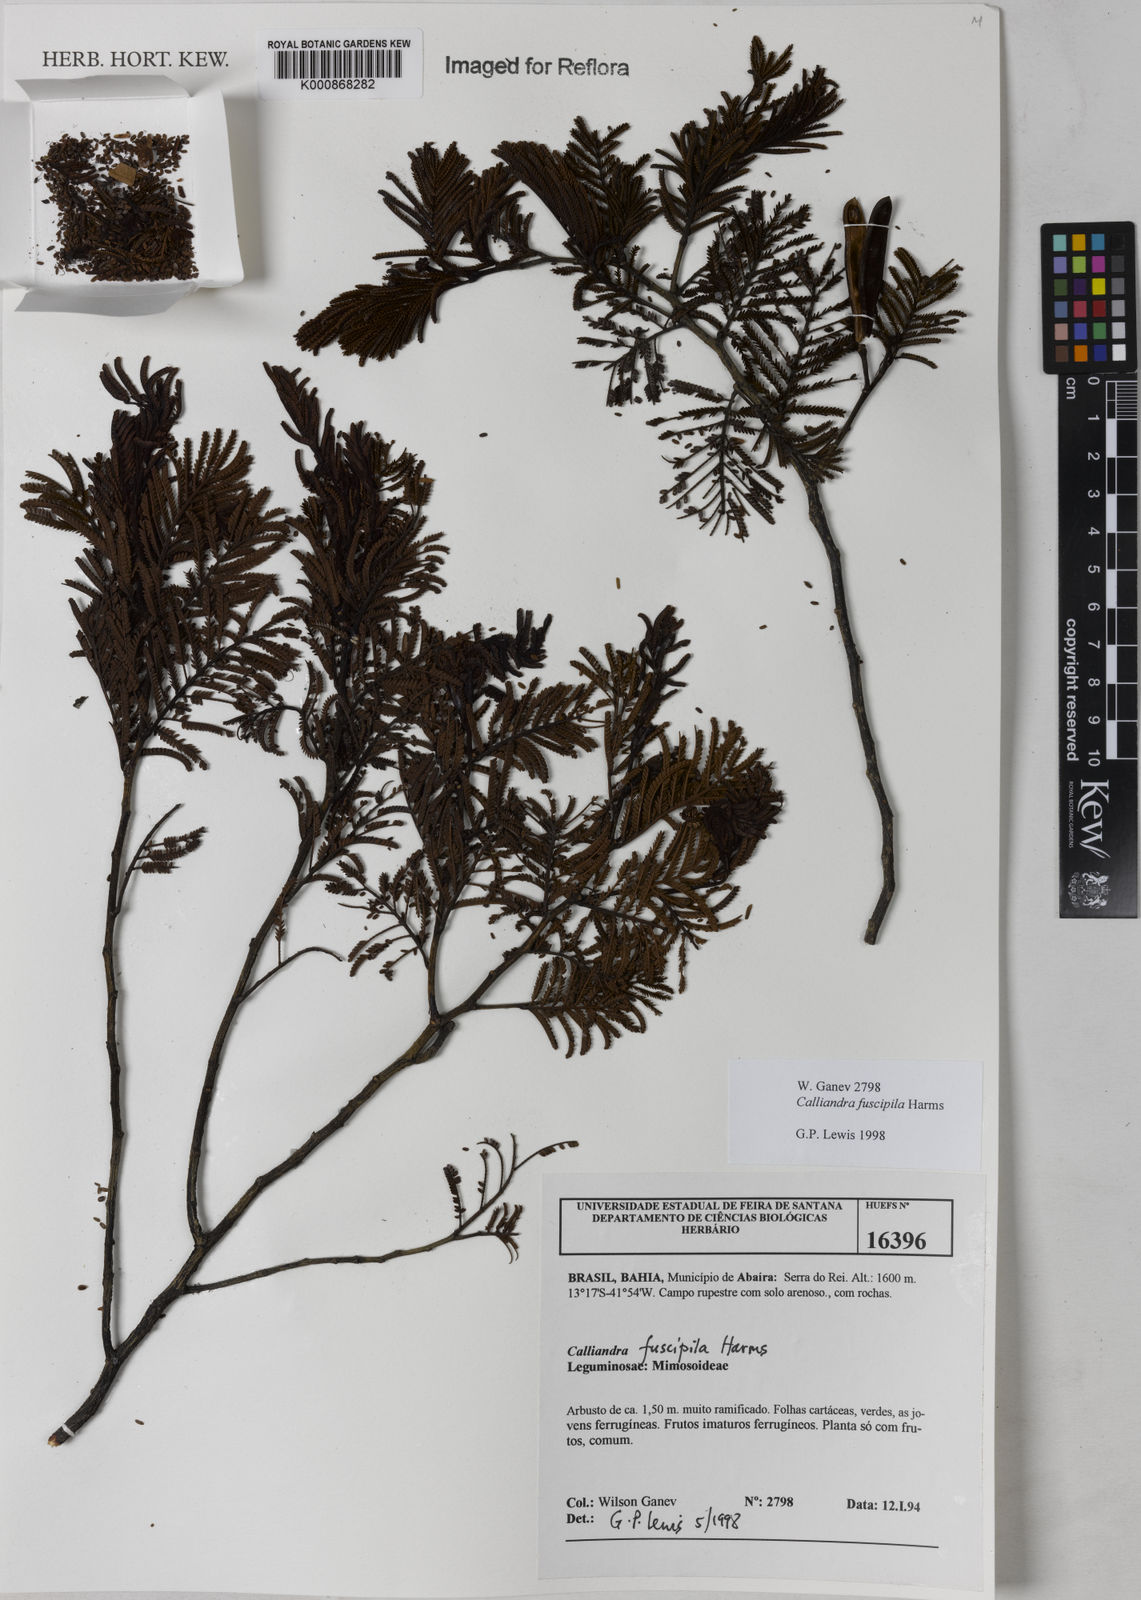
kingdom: Plantae
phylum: Tracheophyta
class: Magnoliopsida
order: Fabales
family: Fabaceae
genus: Calliandra
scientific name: Calliandra fuscipila
